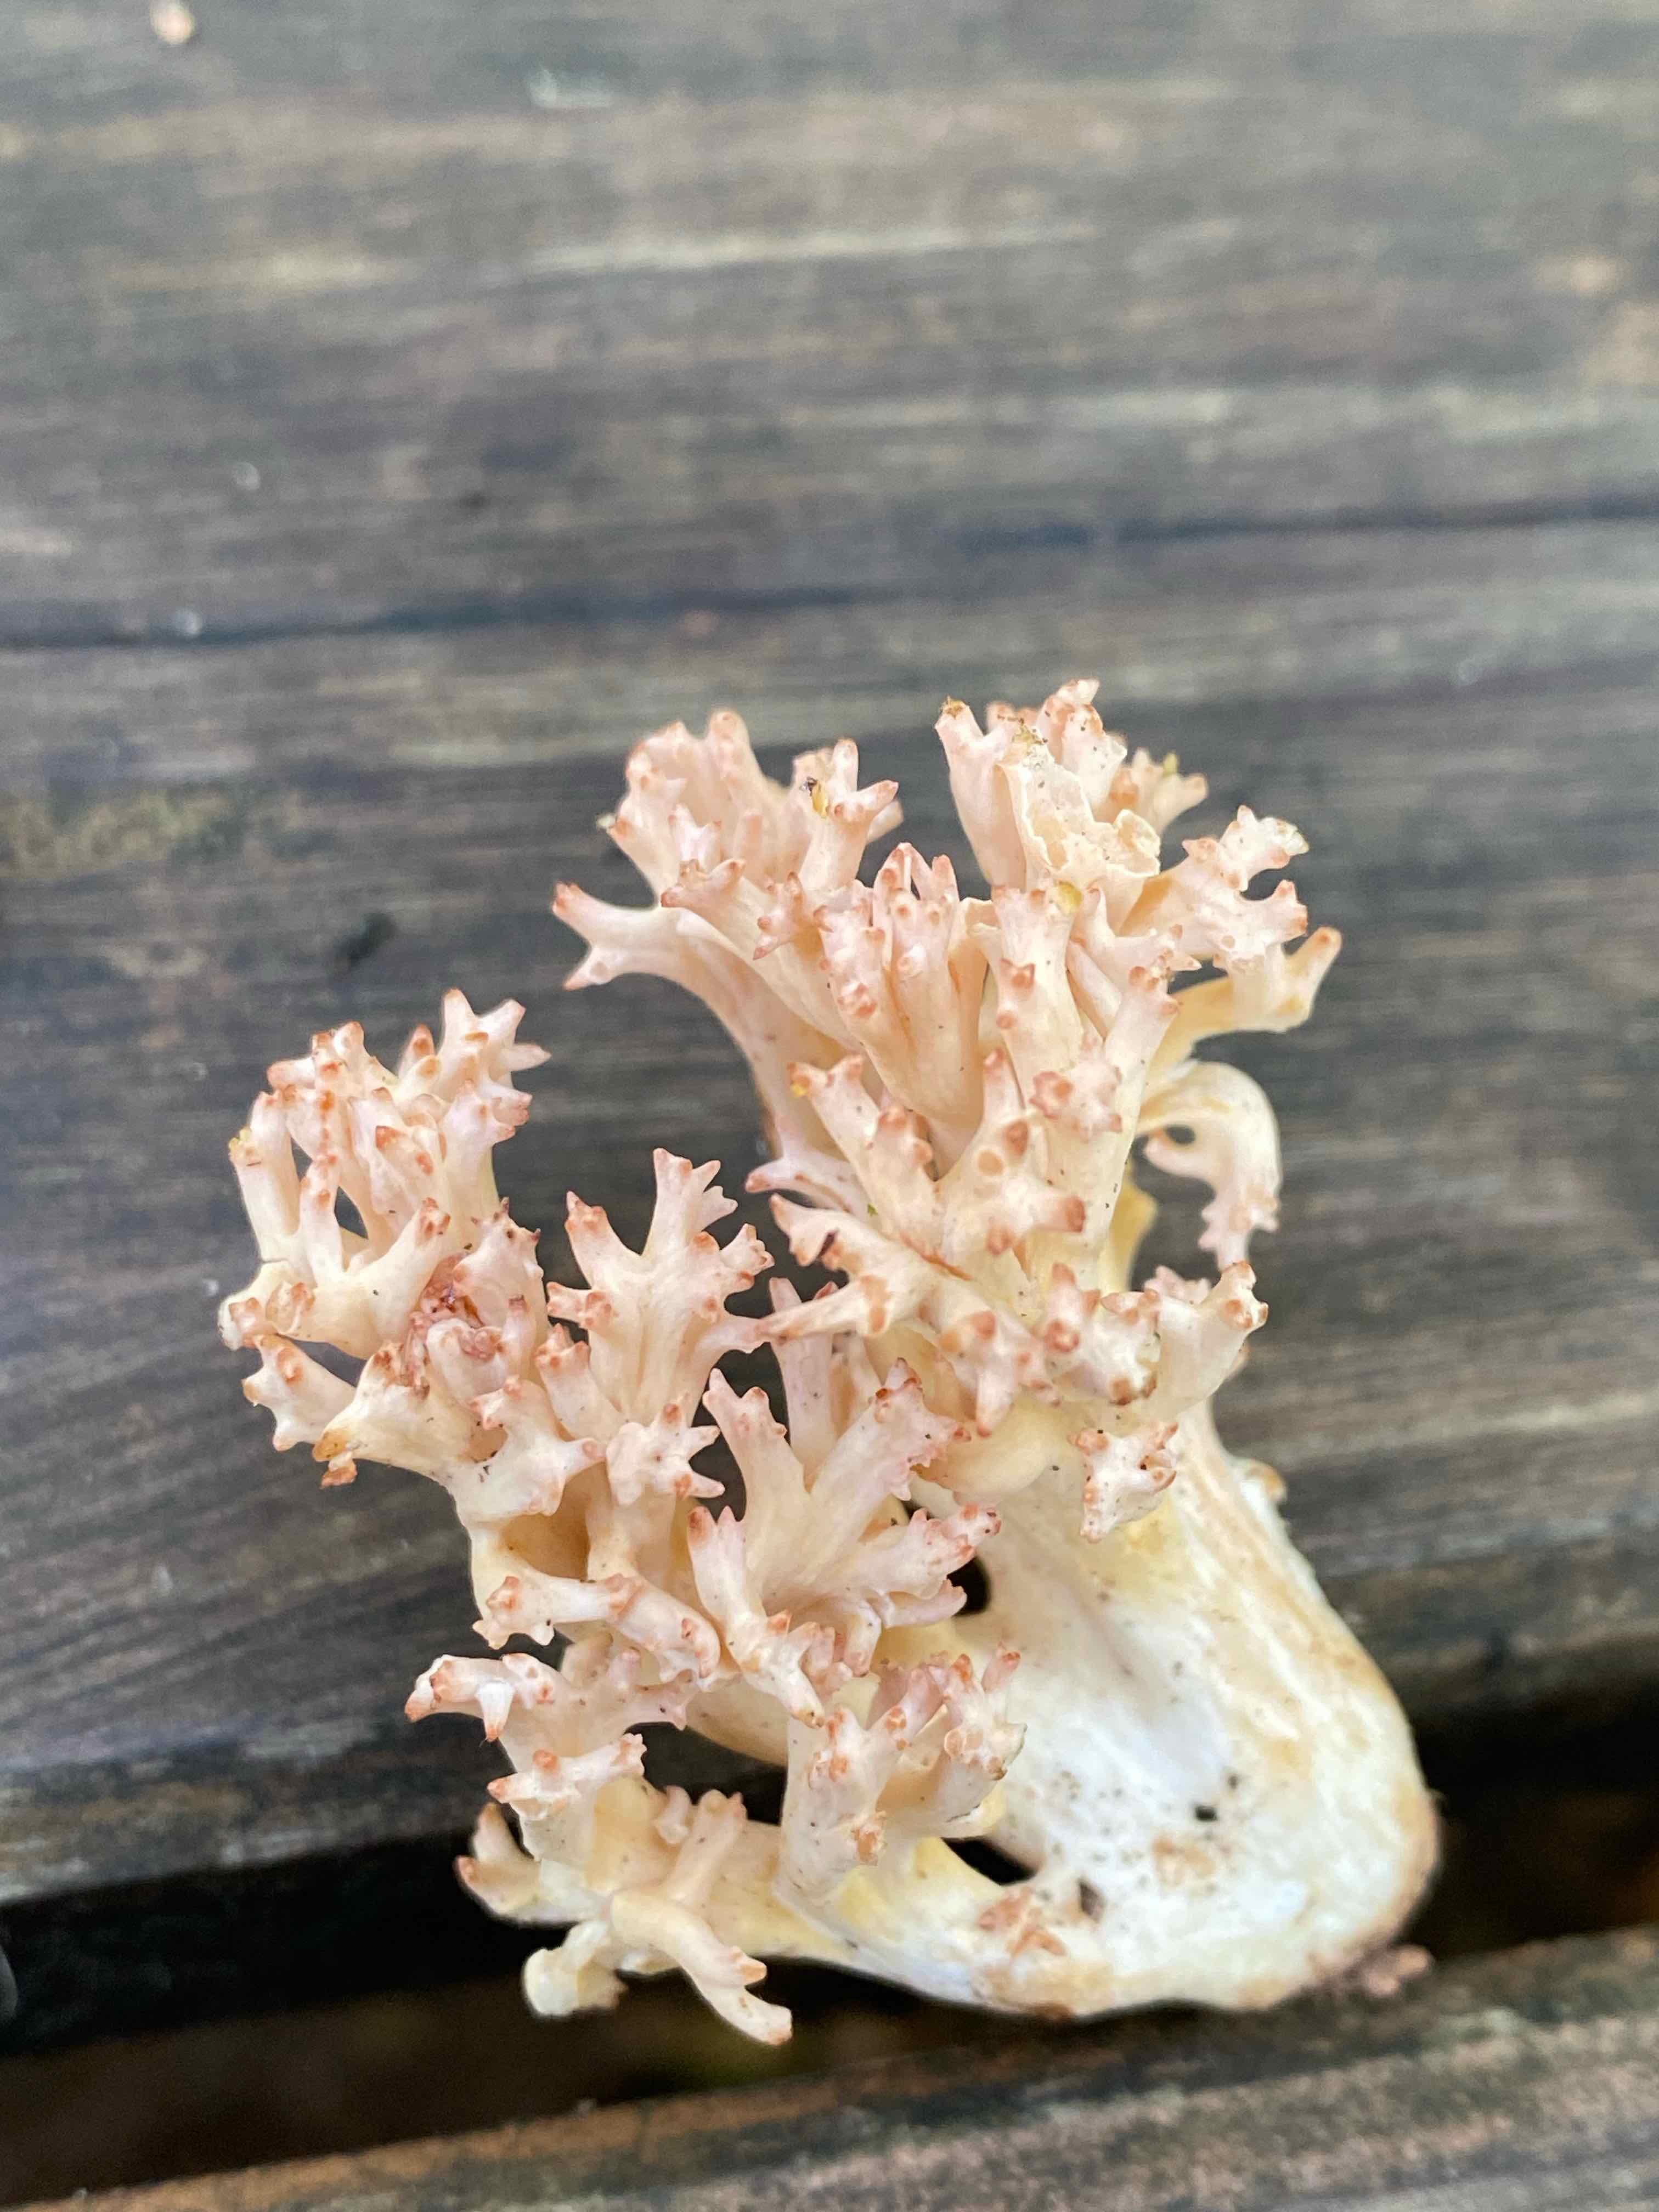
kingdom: Fungi
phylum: Basidiomycota
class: Agaricomycetes
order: Gomphales
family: Gomphaceae
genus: Ramaria
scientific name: Ramaria botrytis
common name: drue-koralsvamp
